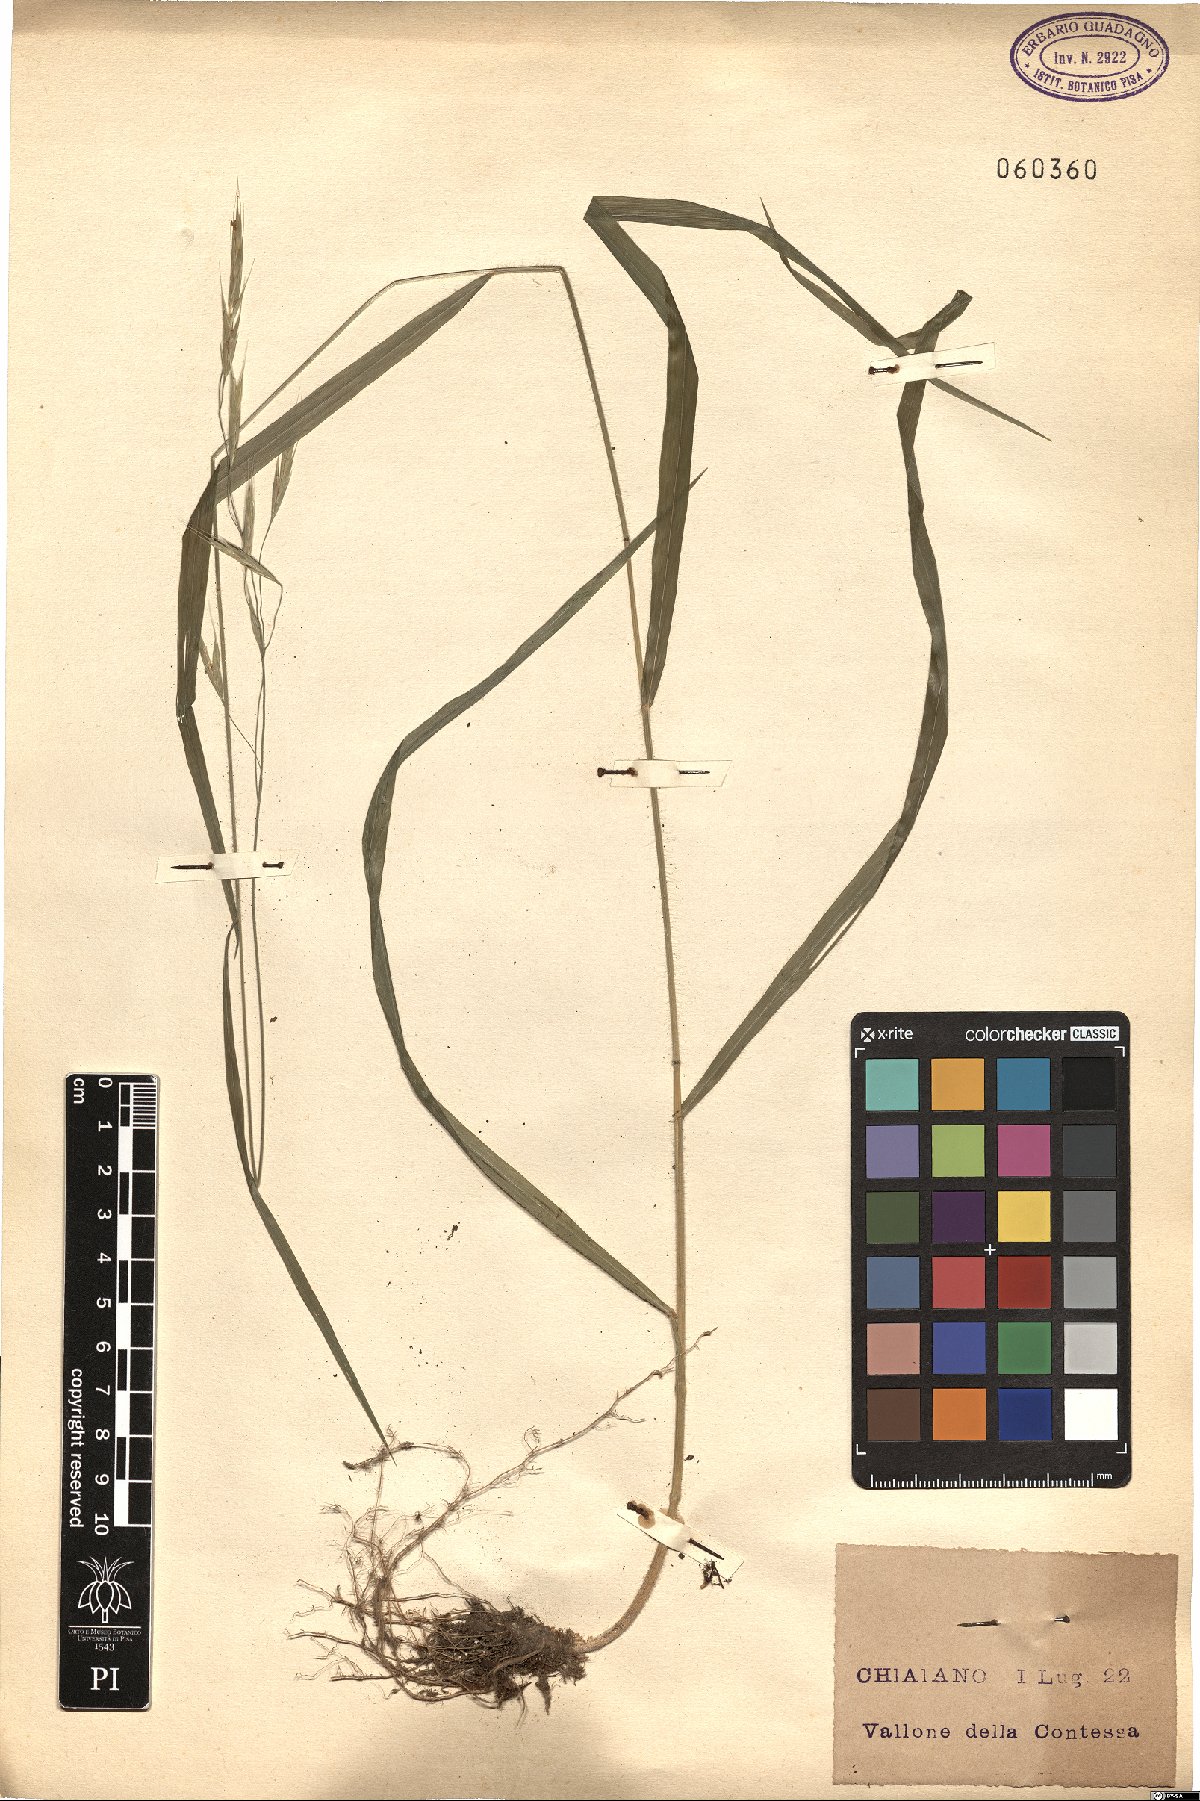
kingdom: Plantae
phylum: Tracheophyta
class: Liliopsida
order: Poales
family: Poaceae
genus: Bromus
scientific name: Bromus ramosus
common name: Hairy brome
